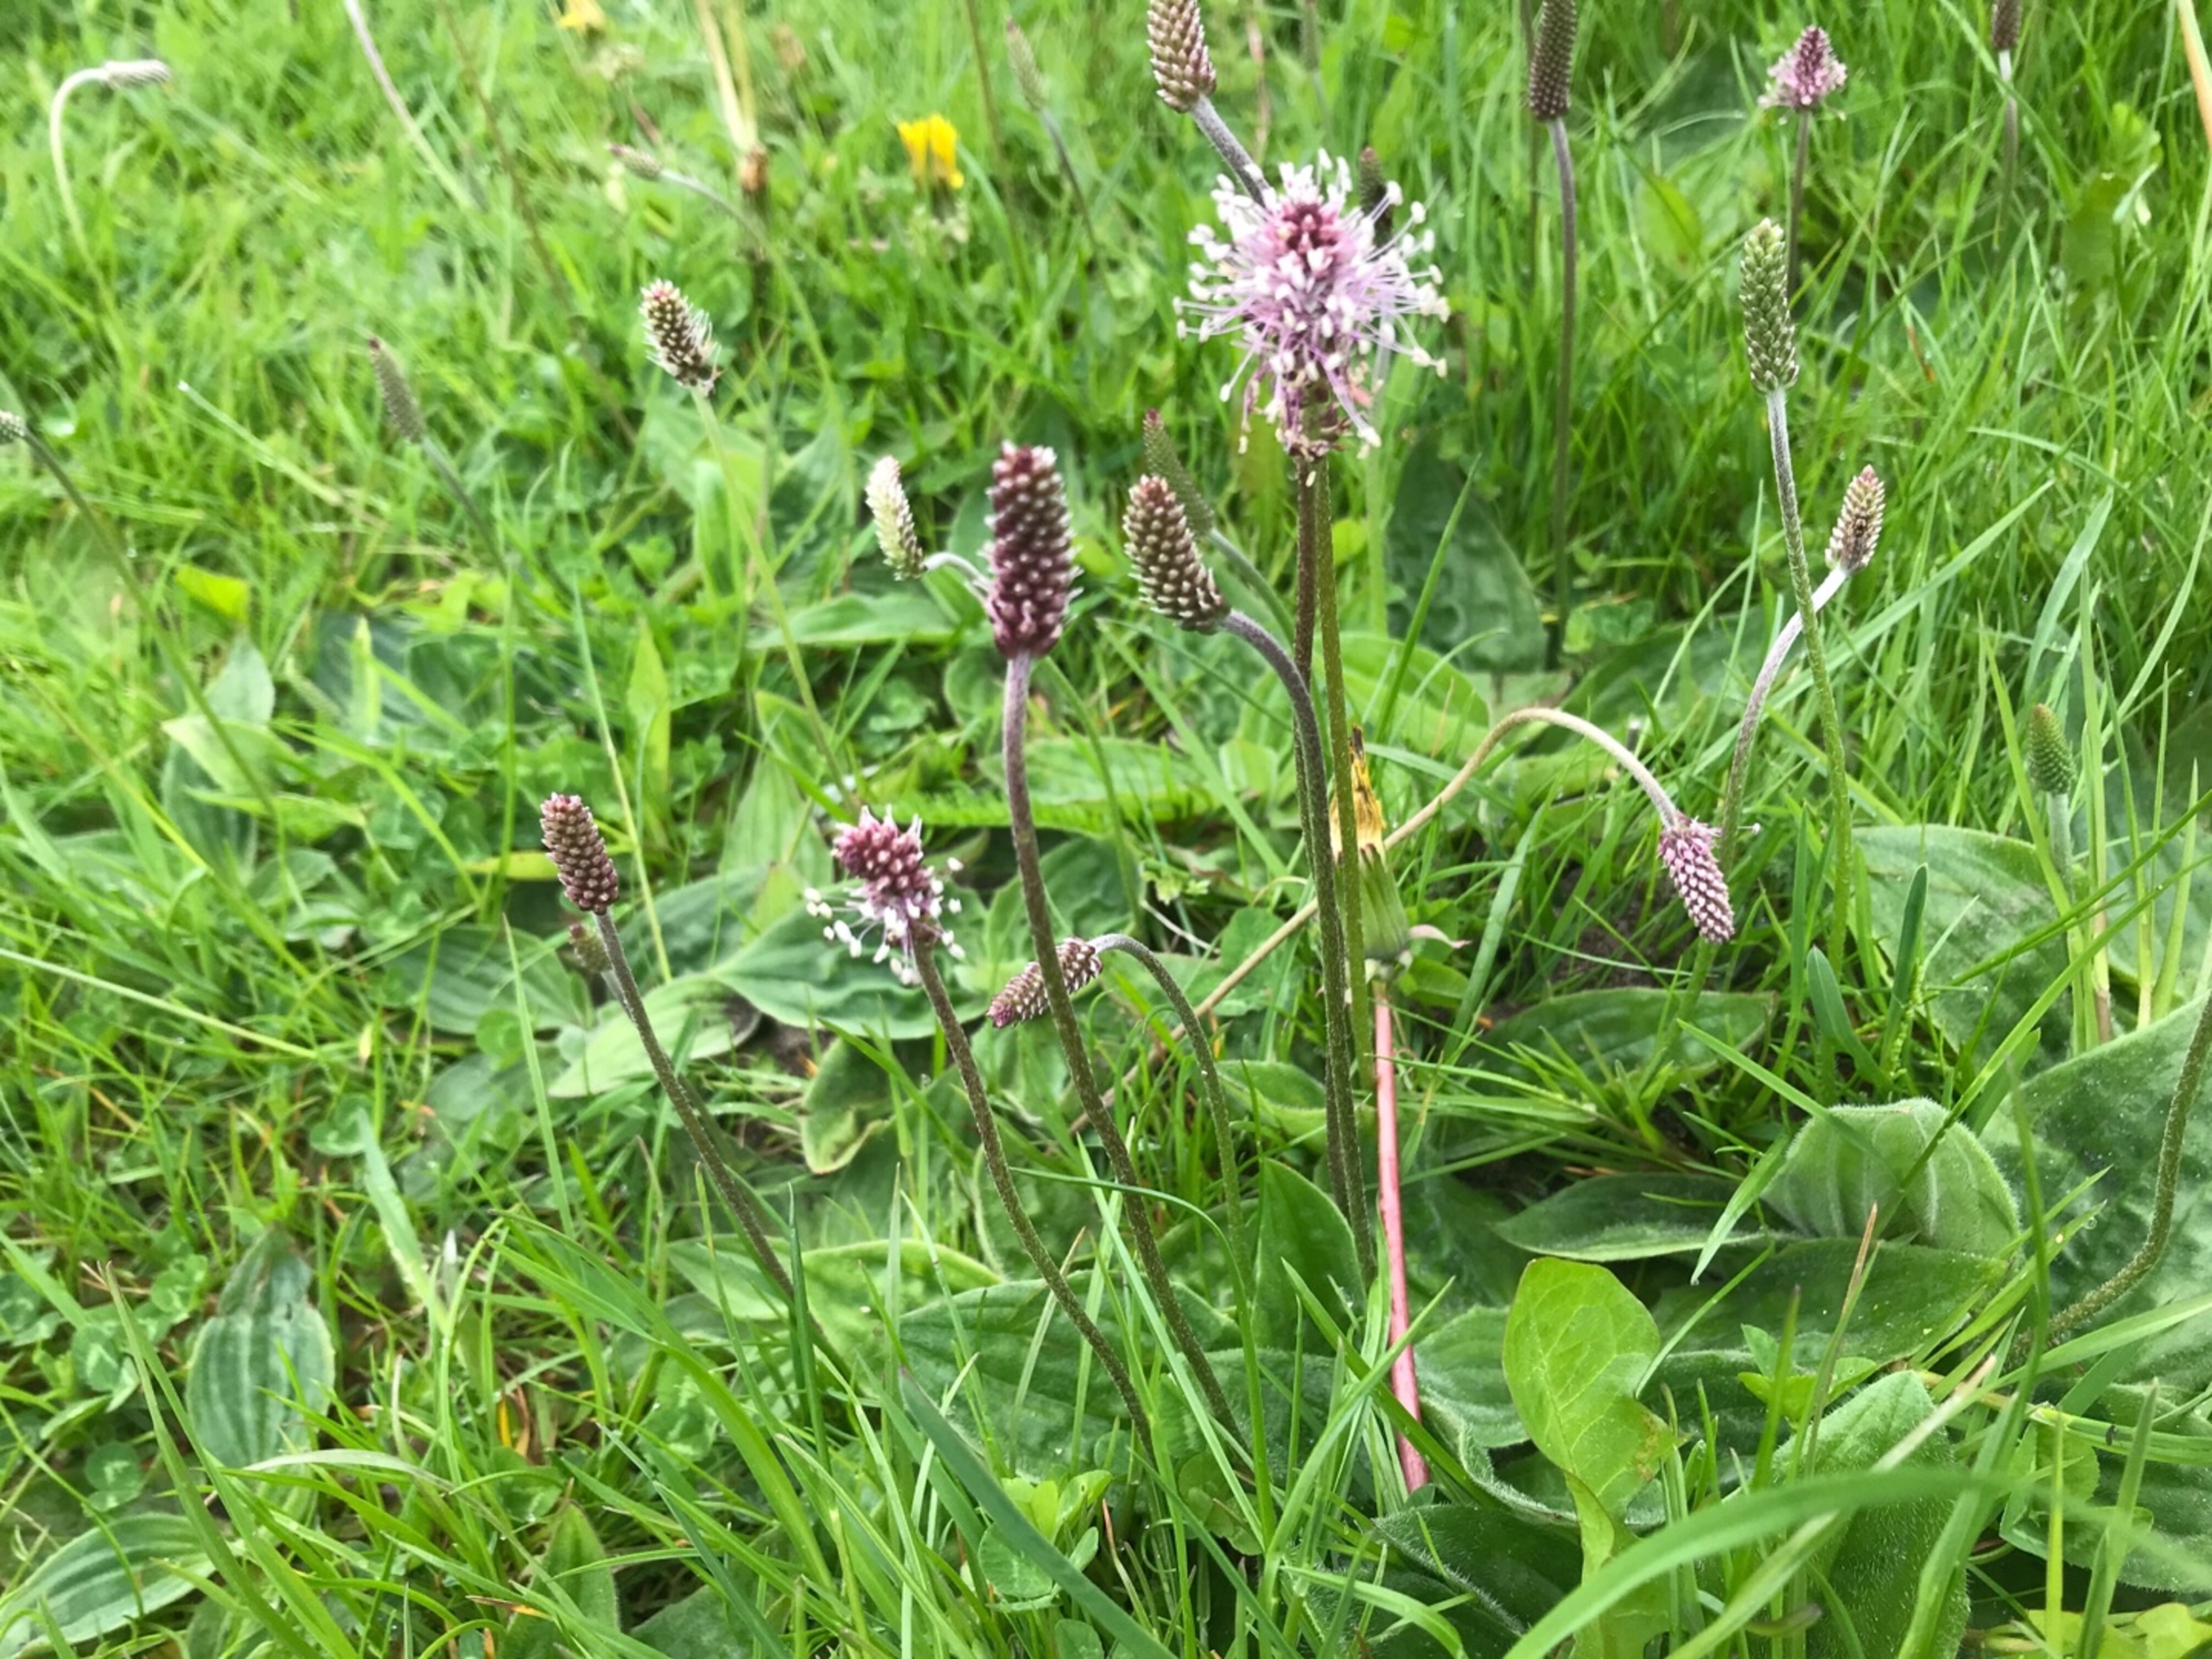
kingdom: Plantae
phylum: Tracheophyta
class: Magnoliopsida
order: Lamiales
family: Plantaginaceae
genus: Plantago
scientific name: Plantago media
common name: Dunet vejbred
